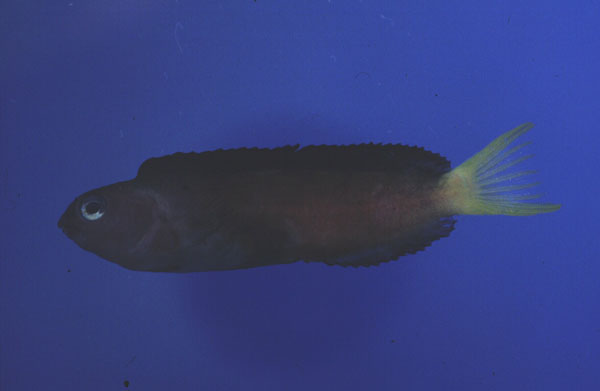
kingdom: Animalia
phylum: Chordata
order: Perciformes
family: Blenniidae
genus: Meiacanthus
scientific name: Meiacanthus fraseri
